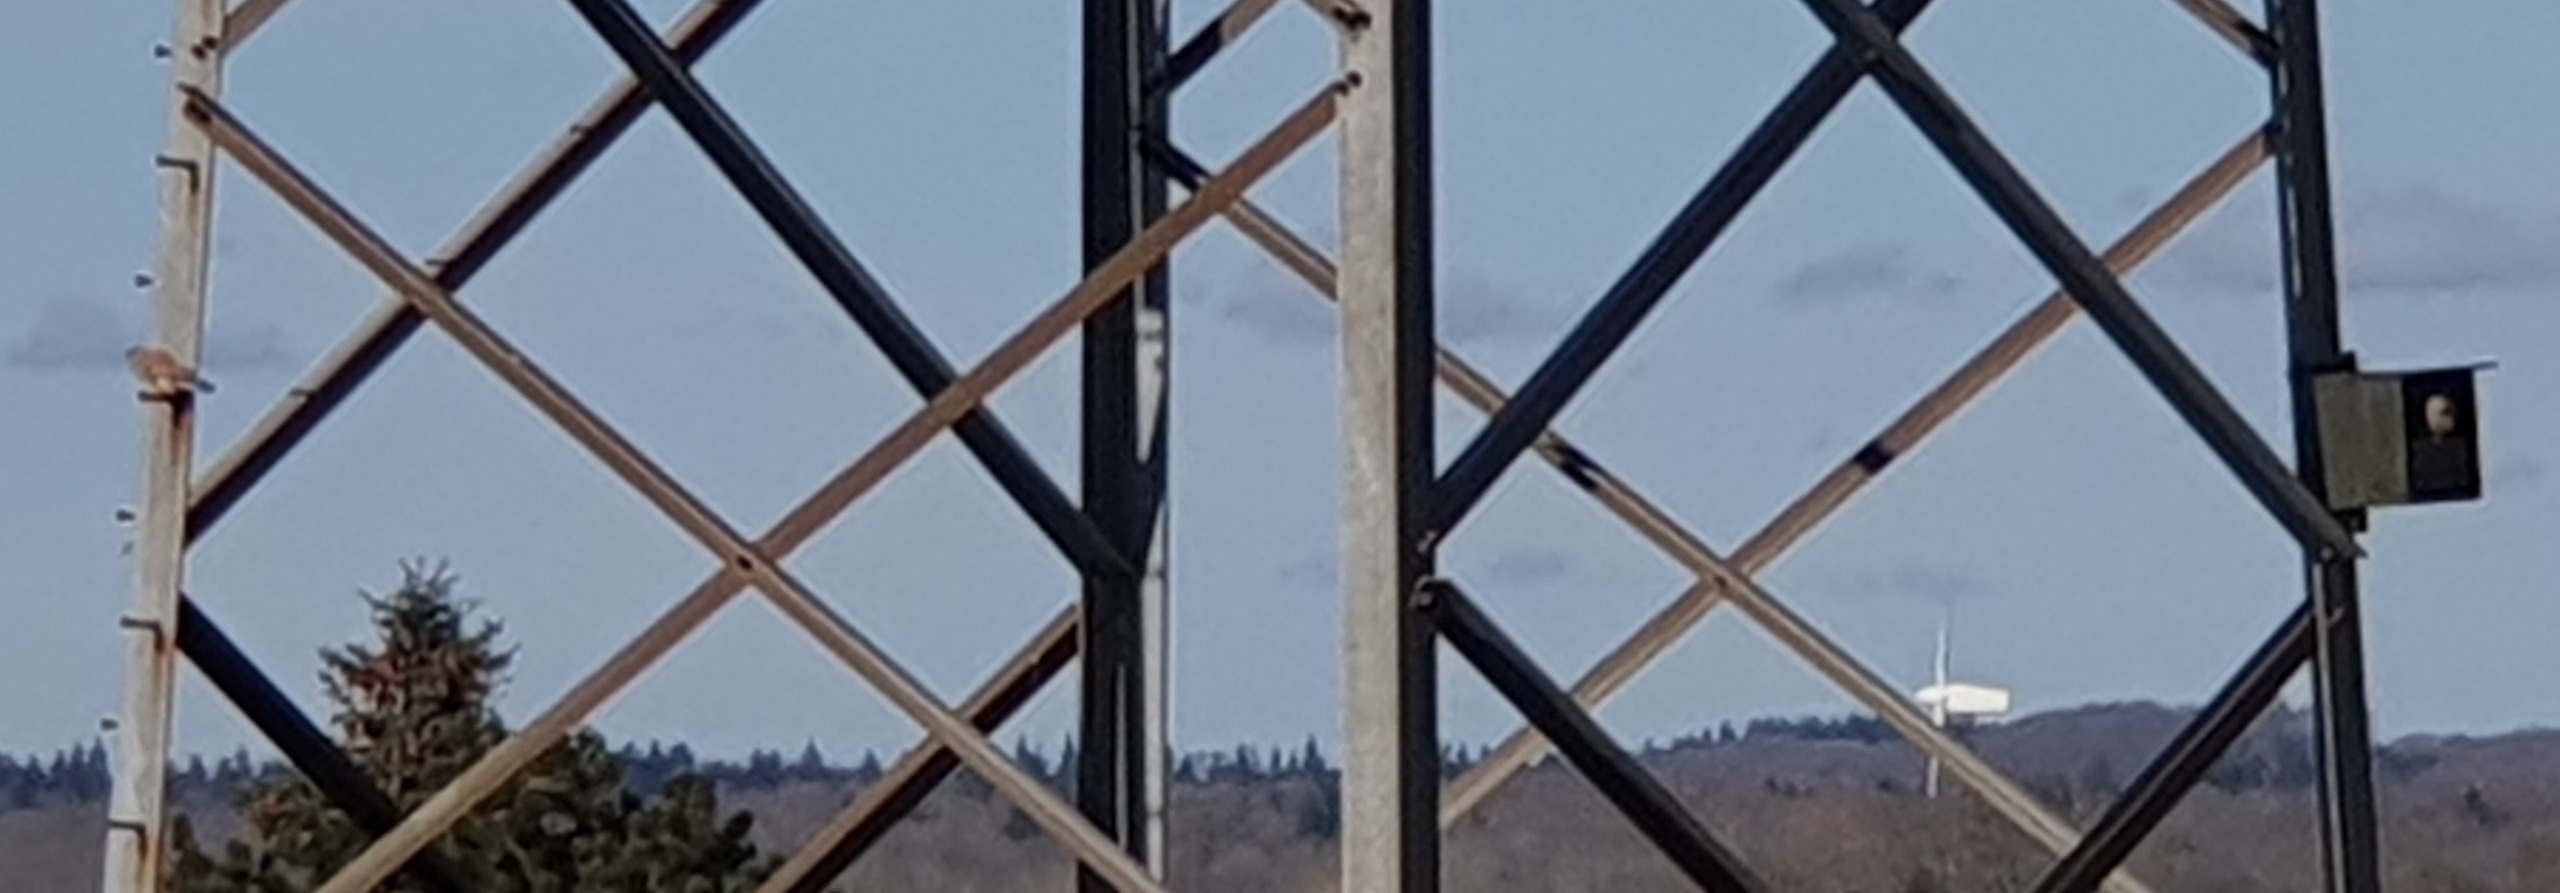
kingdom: Animalia
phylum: Chordata
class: Aves
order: Falconiformes
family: Falconidae
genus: Falco
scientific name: Falco tinnunculus
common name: Tårnfalk
